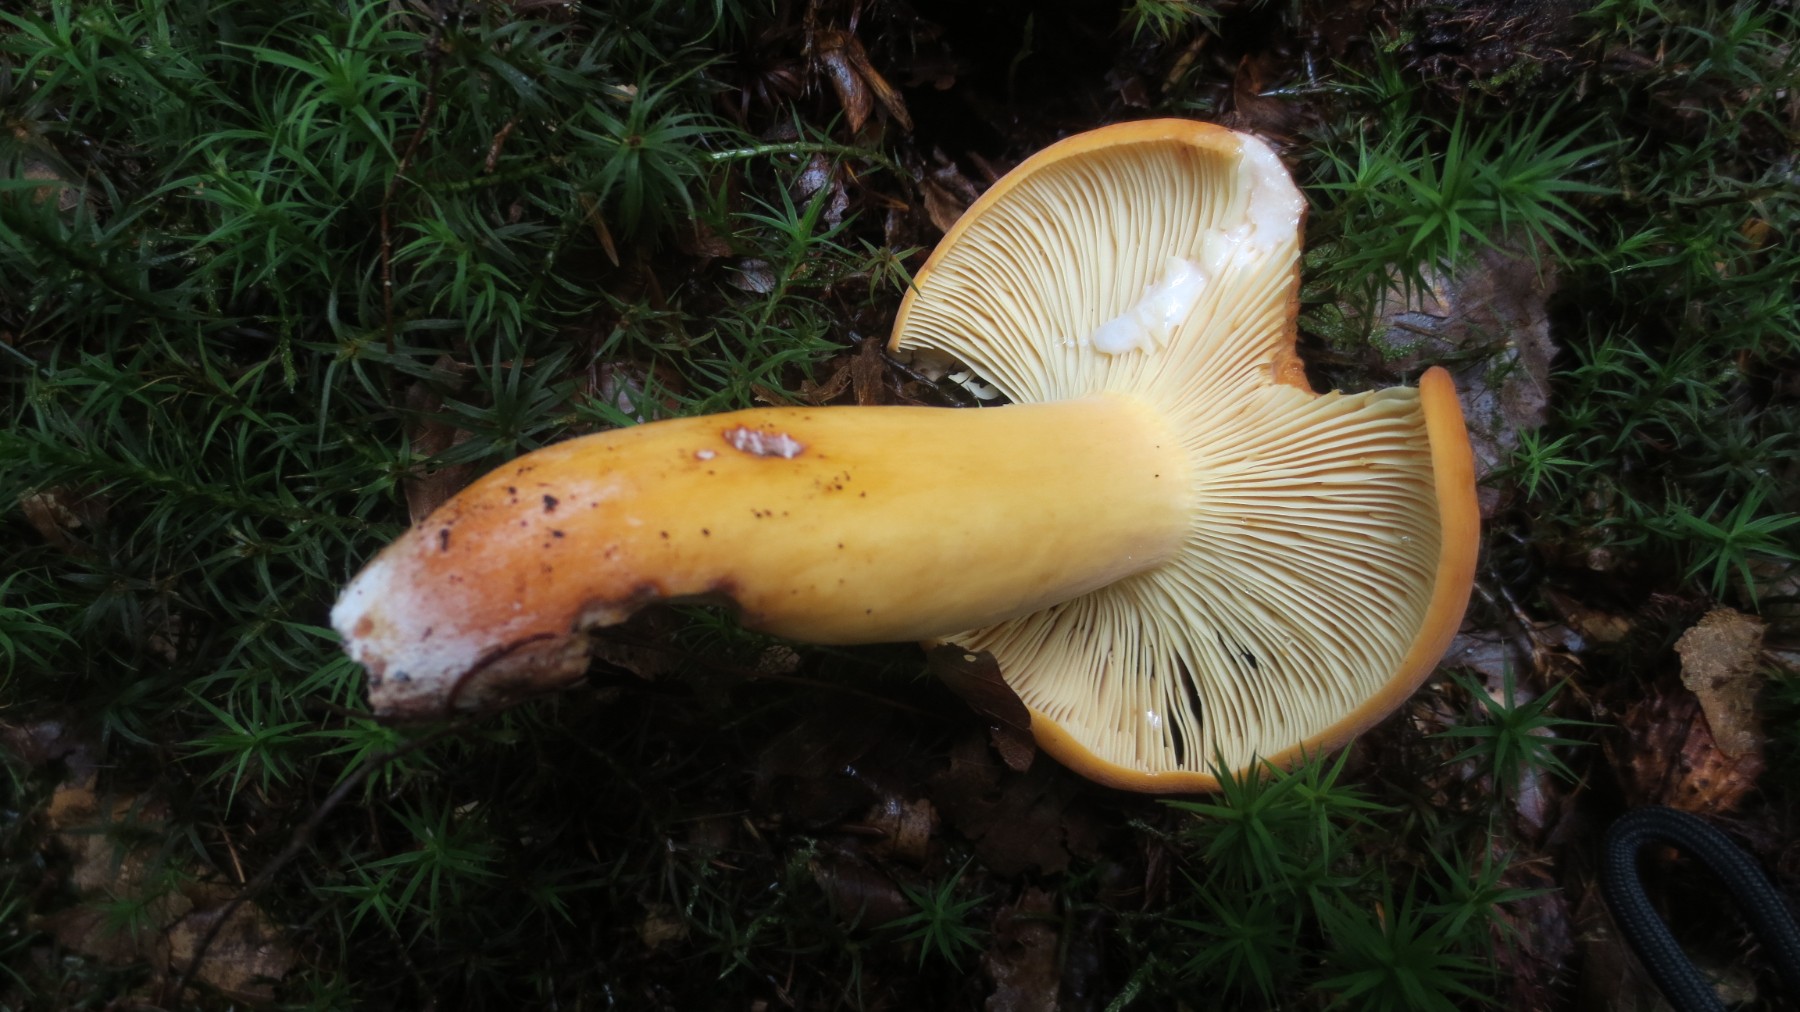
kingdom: Fungi
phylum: Basidiomycota
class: Agaricomycetes
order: Russulales
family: Russulaceae
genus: Lactifluus
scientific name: Lactifluus volemus
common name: spiselig mælkehat
